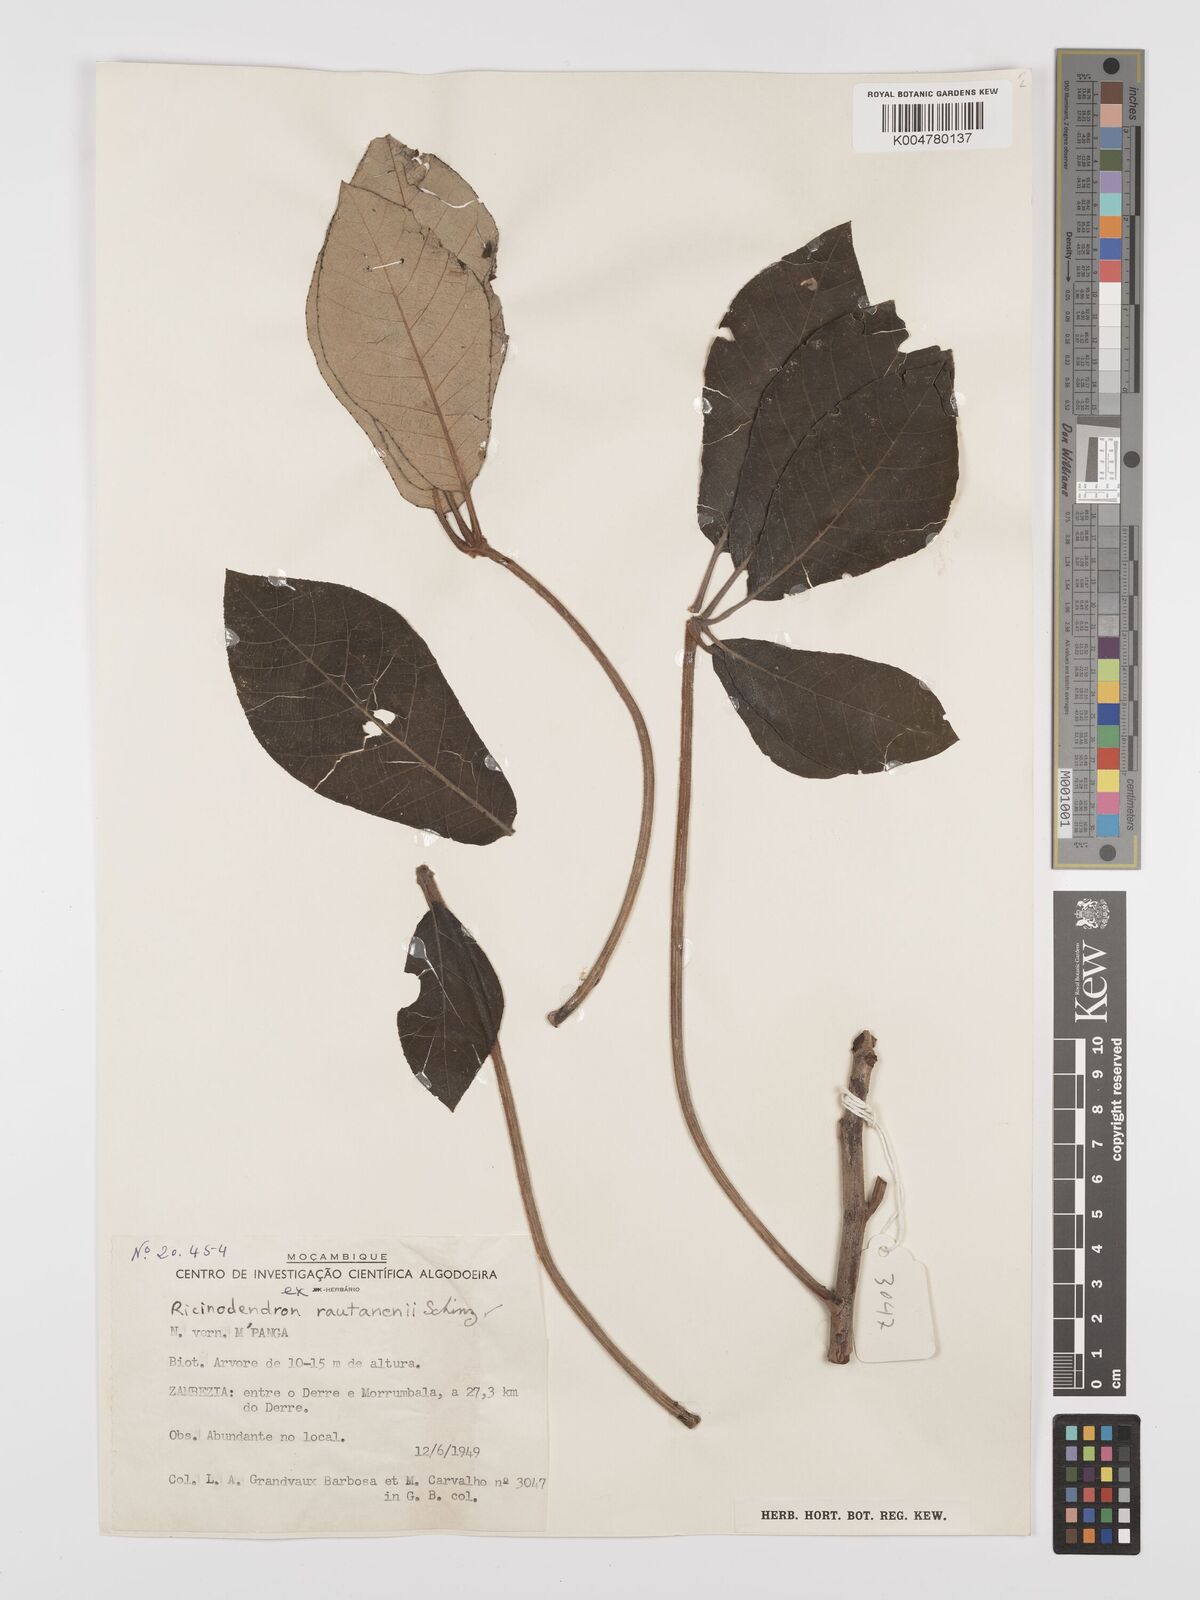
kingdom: Plantae
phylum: Tracheophyta
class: Magnoliopsida
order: Malpighiales
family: Euphorbiaceae
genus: Schinziophyton
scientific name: Schinziophyton rautanenii
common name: Manketti
